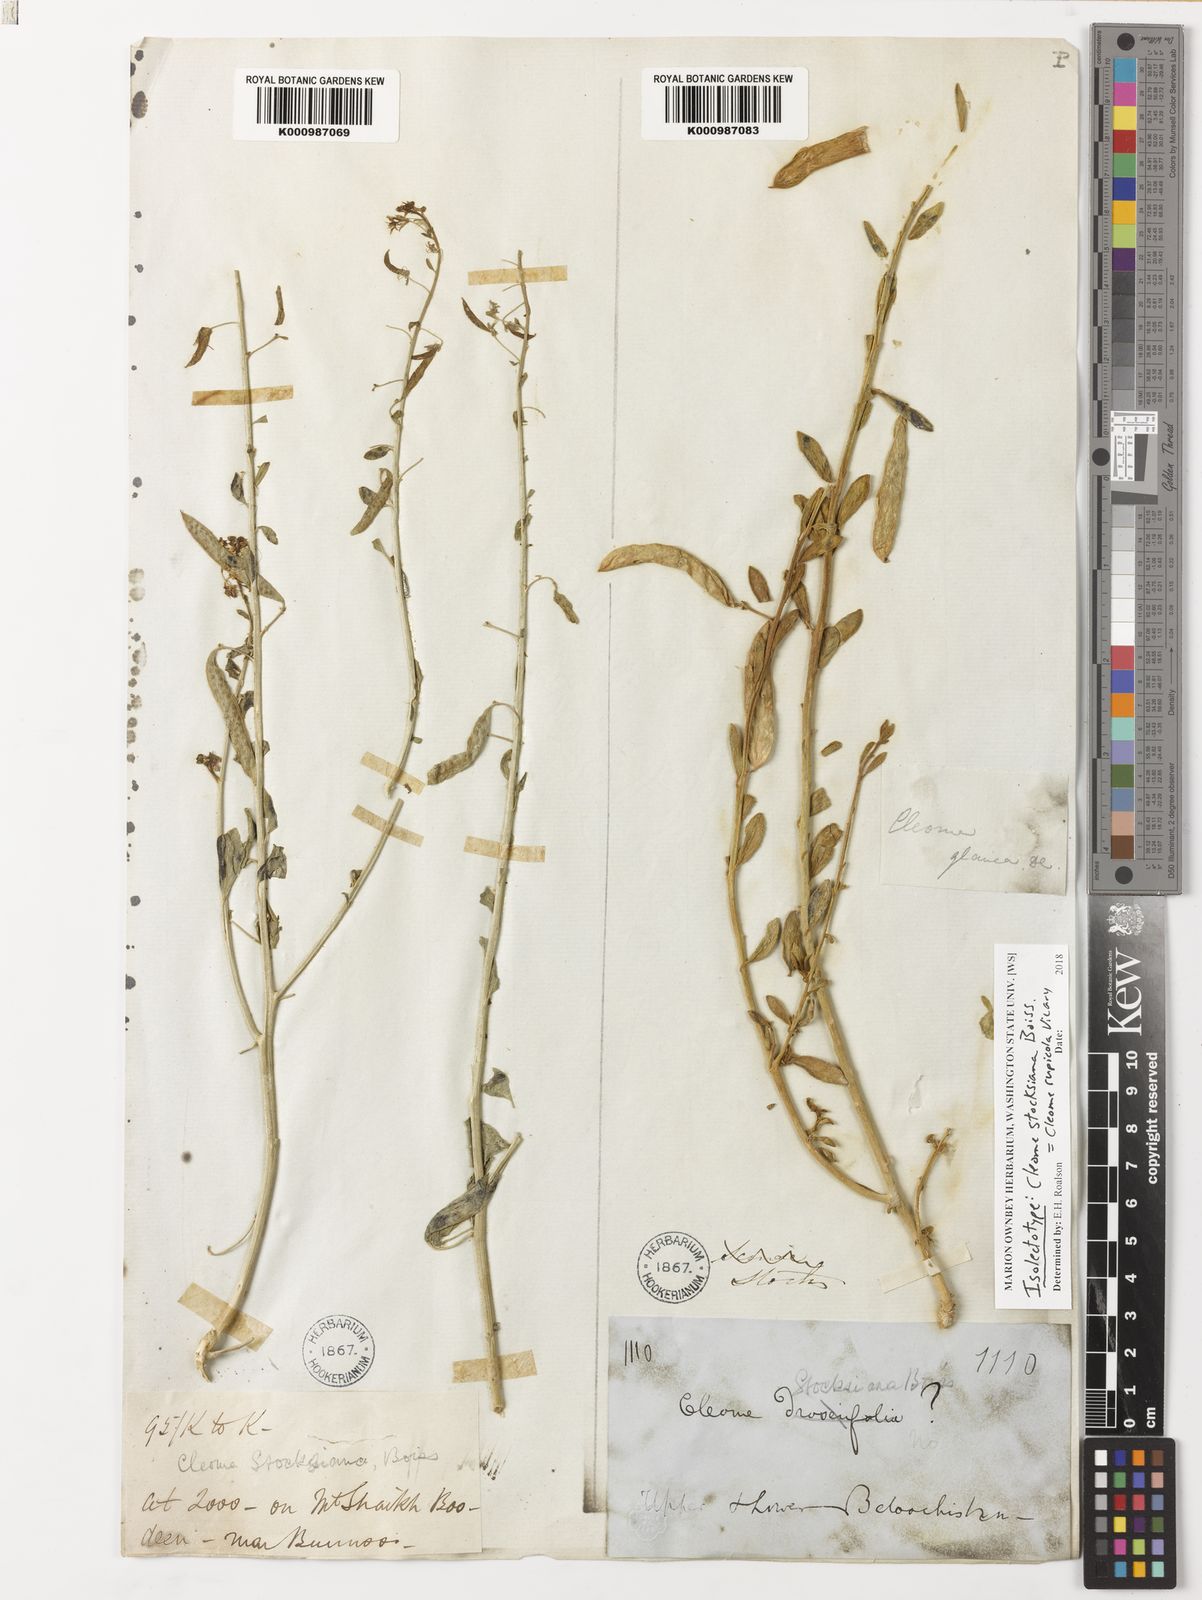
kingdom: Plantae
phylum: Tracheophyta
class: Magnoliopsida
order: Brassicales
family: Cleomaceae
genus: Cleome
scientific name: Cleome rupicola
